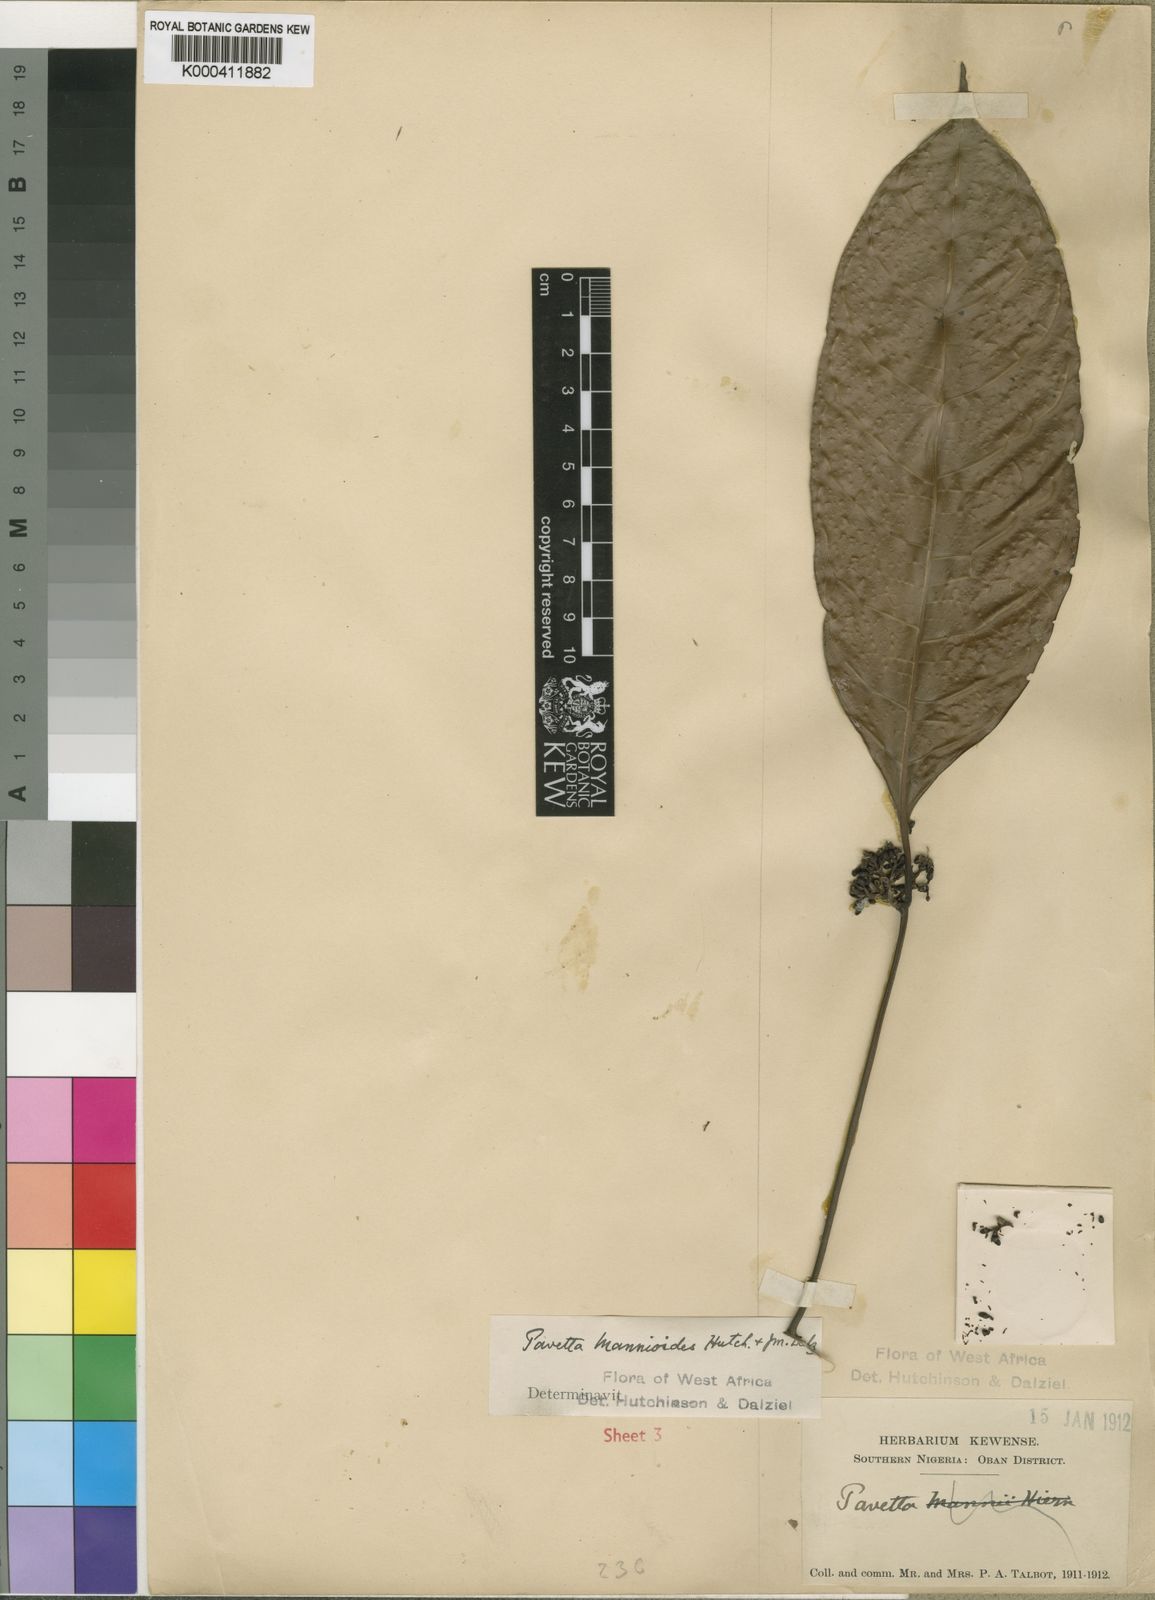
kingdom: Plantae
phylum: Tracheophyta
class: Magnoliopsida
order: Gentianales
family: Rubiaceae
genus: Pavetta
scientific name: Pavetta neurocarpa
